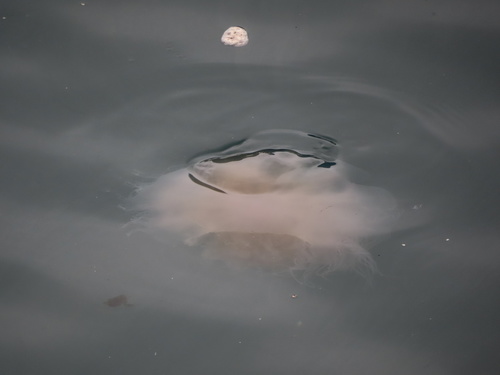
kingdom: Animalia
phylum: Cnidaria
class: Scyphozoa
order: Semaeostomeae
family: Cyaneidae
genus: Cyanea
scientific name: Cyanea nozakii
